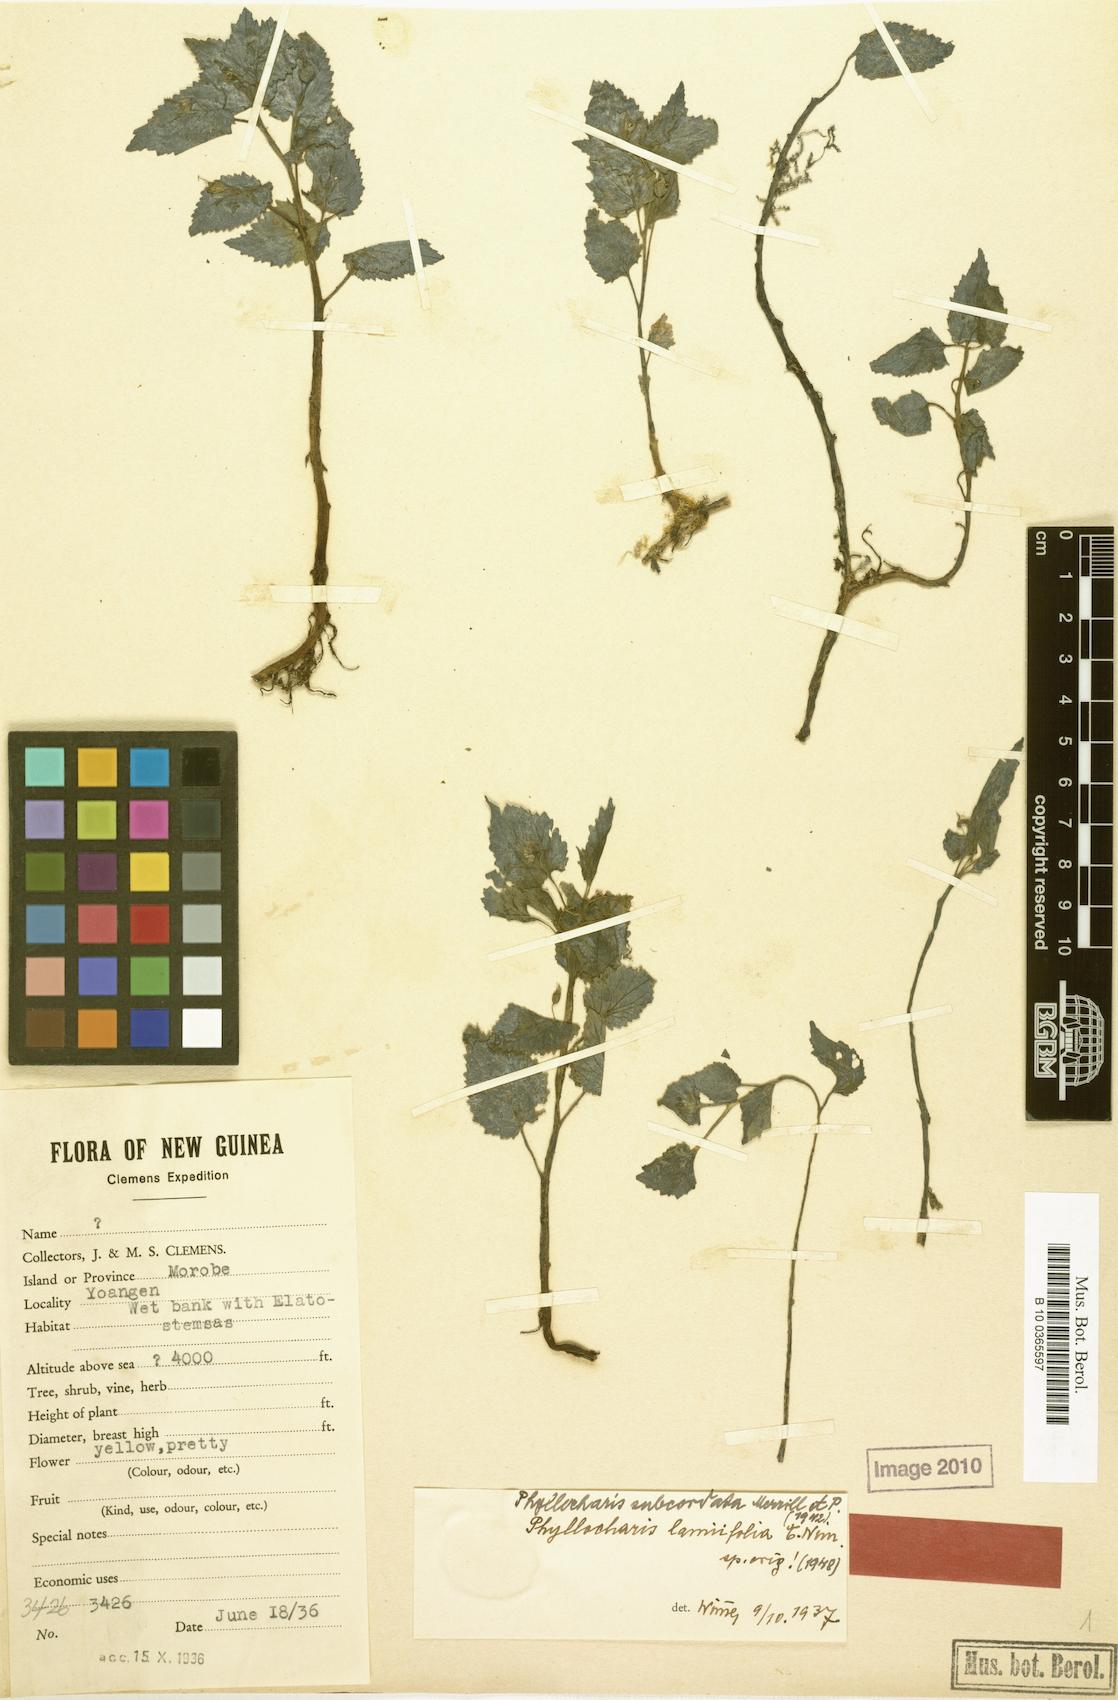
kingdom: Plantae
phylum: Tracheophyta
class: Magnoliopsida
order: Asterales
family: Campanulaceae
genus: Ruthiella
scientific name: Ruthiella subcordata
